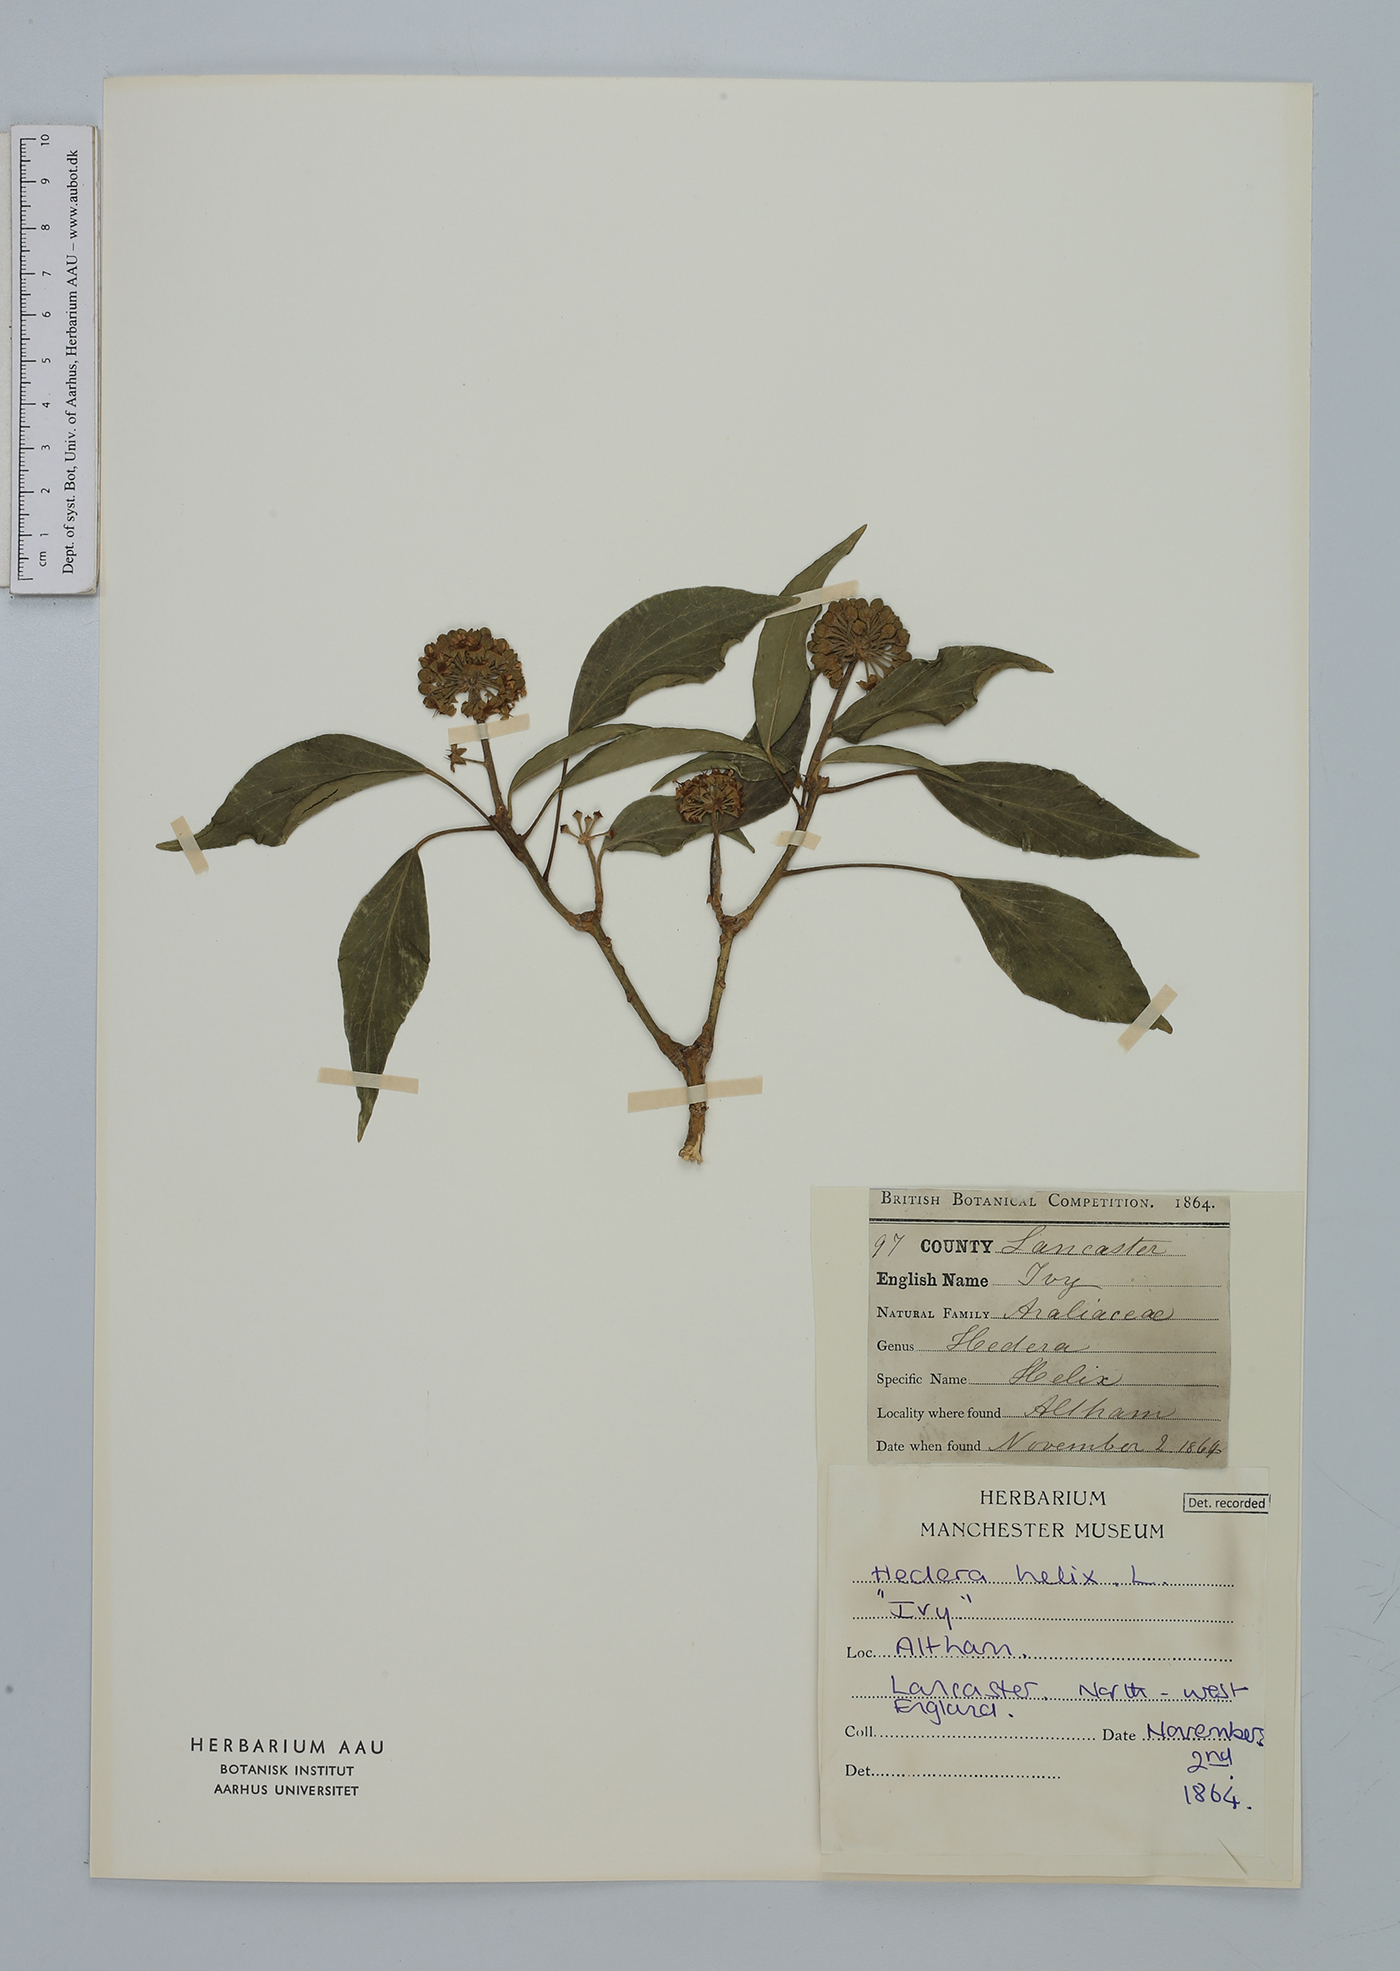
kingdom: Plantae
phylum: Tracheophyta
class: Magnoliopsida
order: Apiales
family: Araliaceae
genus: Hedera
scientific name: Hedera helix
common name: Ivy
